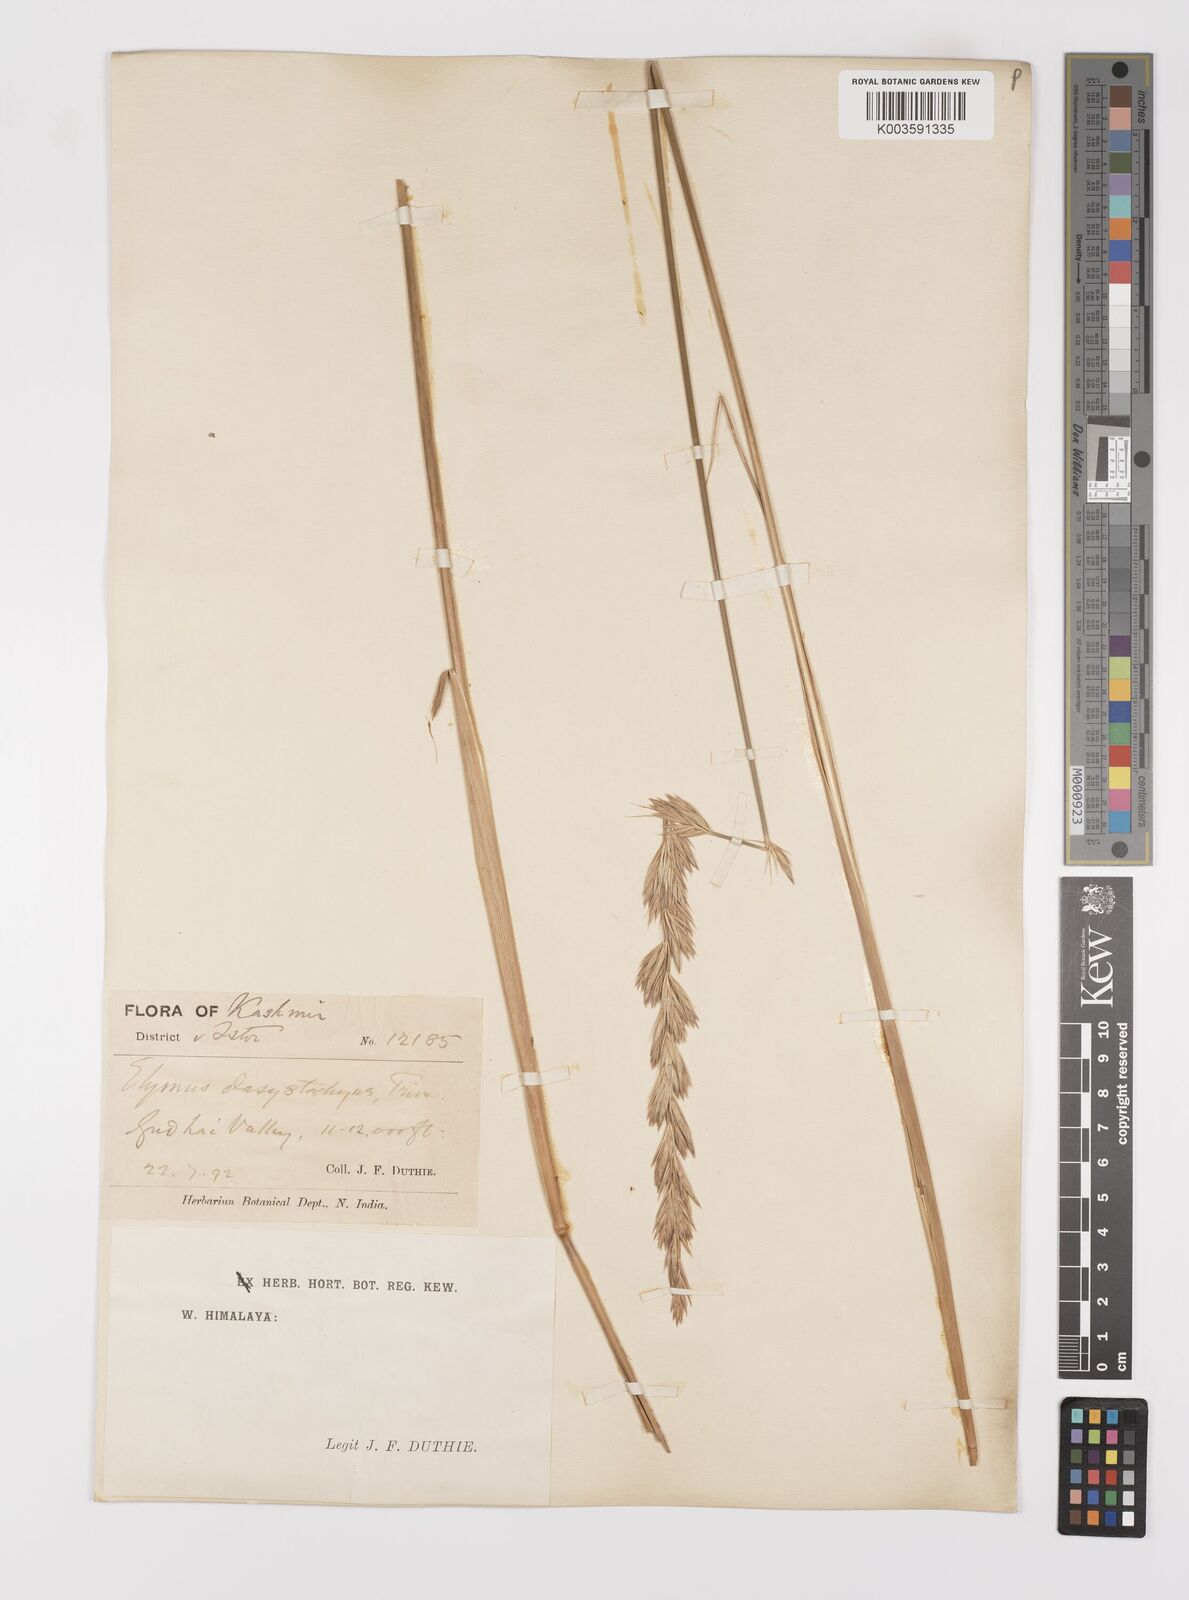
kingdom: Plantae
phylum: Tracheophyta
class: Liliopsida
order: Poales
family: Poaceae
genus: Leymus
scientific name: Leymus secalinus
